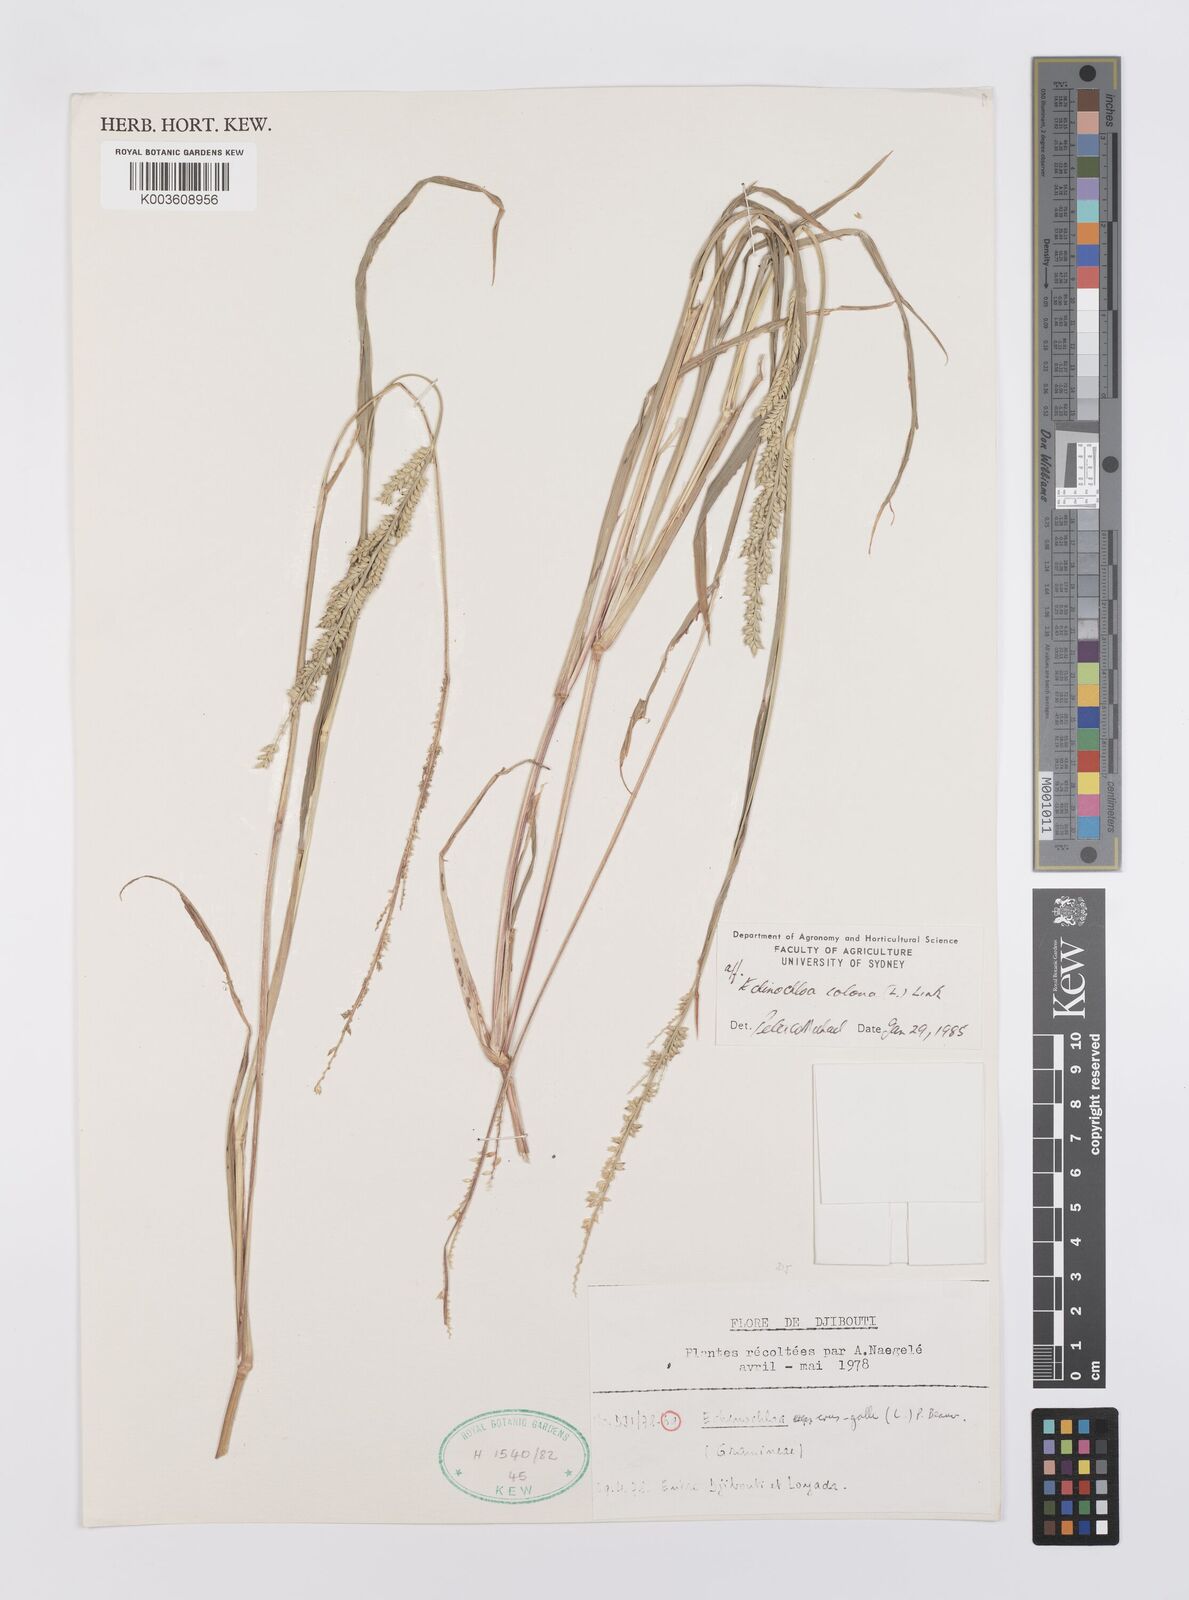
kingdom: Plantae
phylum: Tracheophyta
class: Liliopsida
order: Poales
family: Poaceae
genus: Echinochloa
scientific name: Echinochloa colonum
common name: Jungle rice
